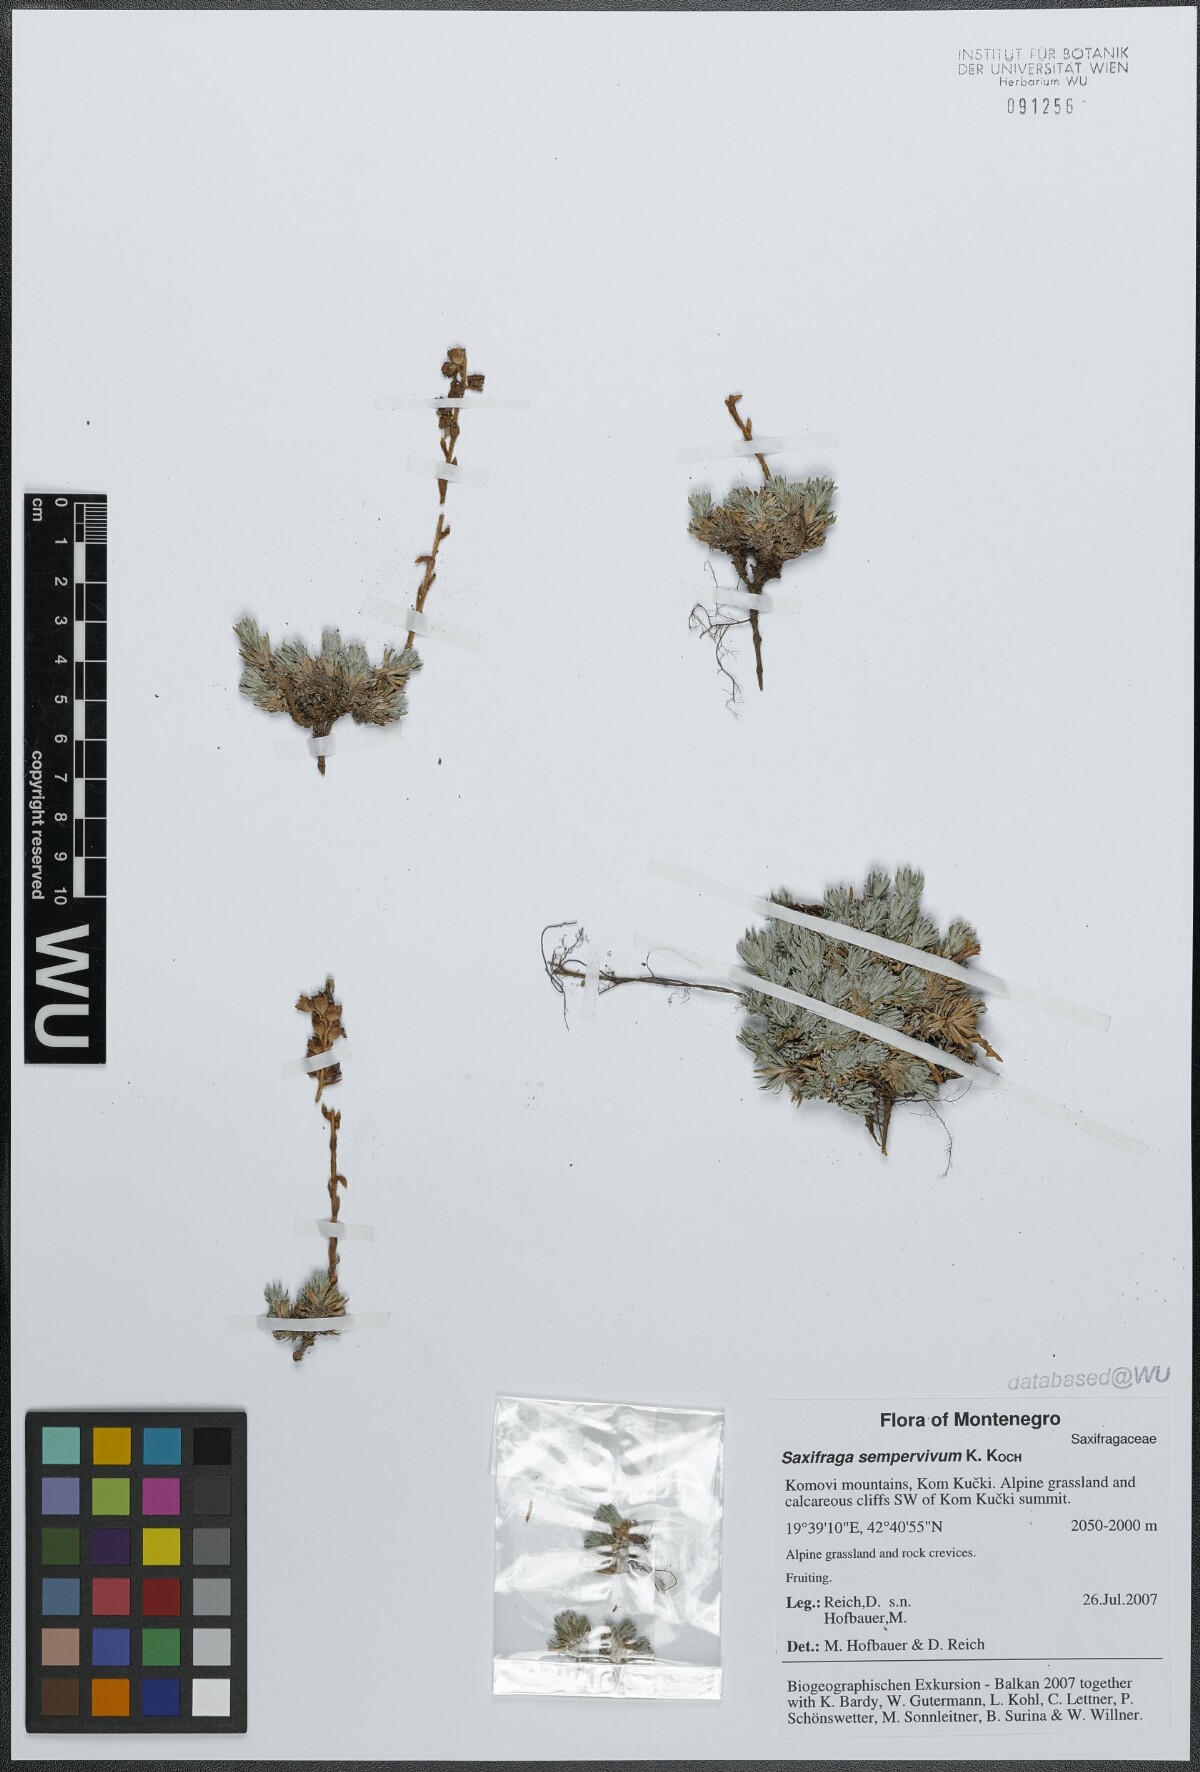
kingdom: Plantae
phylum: Tracheophyta
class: Magnoliopsida
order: Saxifragales
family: Saxifragaceae
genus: Saxifraga
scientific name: Saxifraga sempervivum
